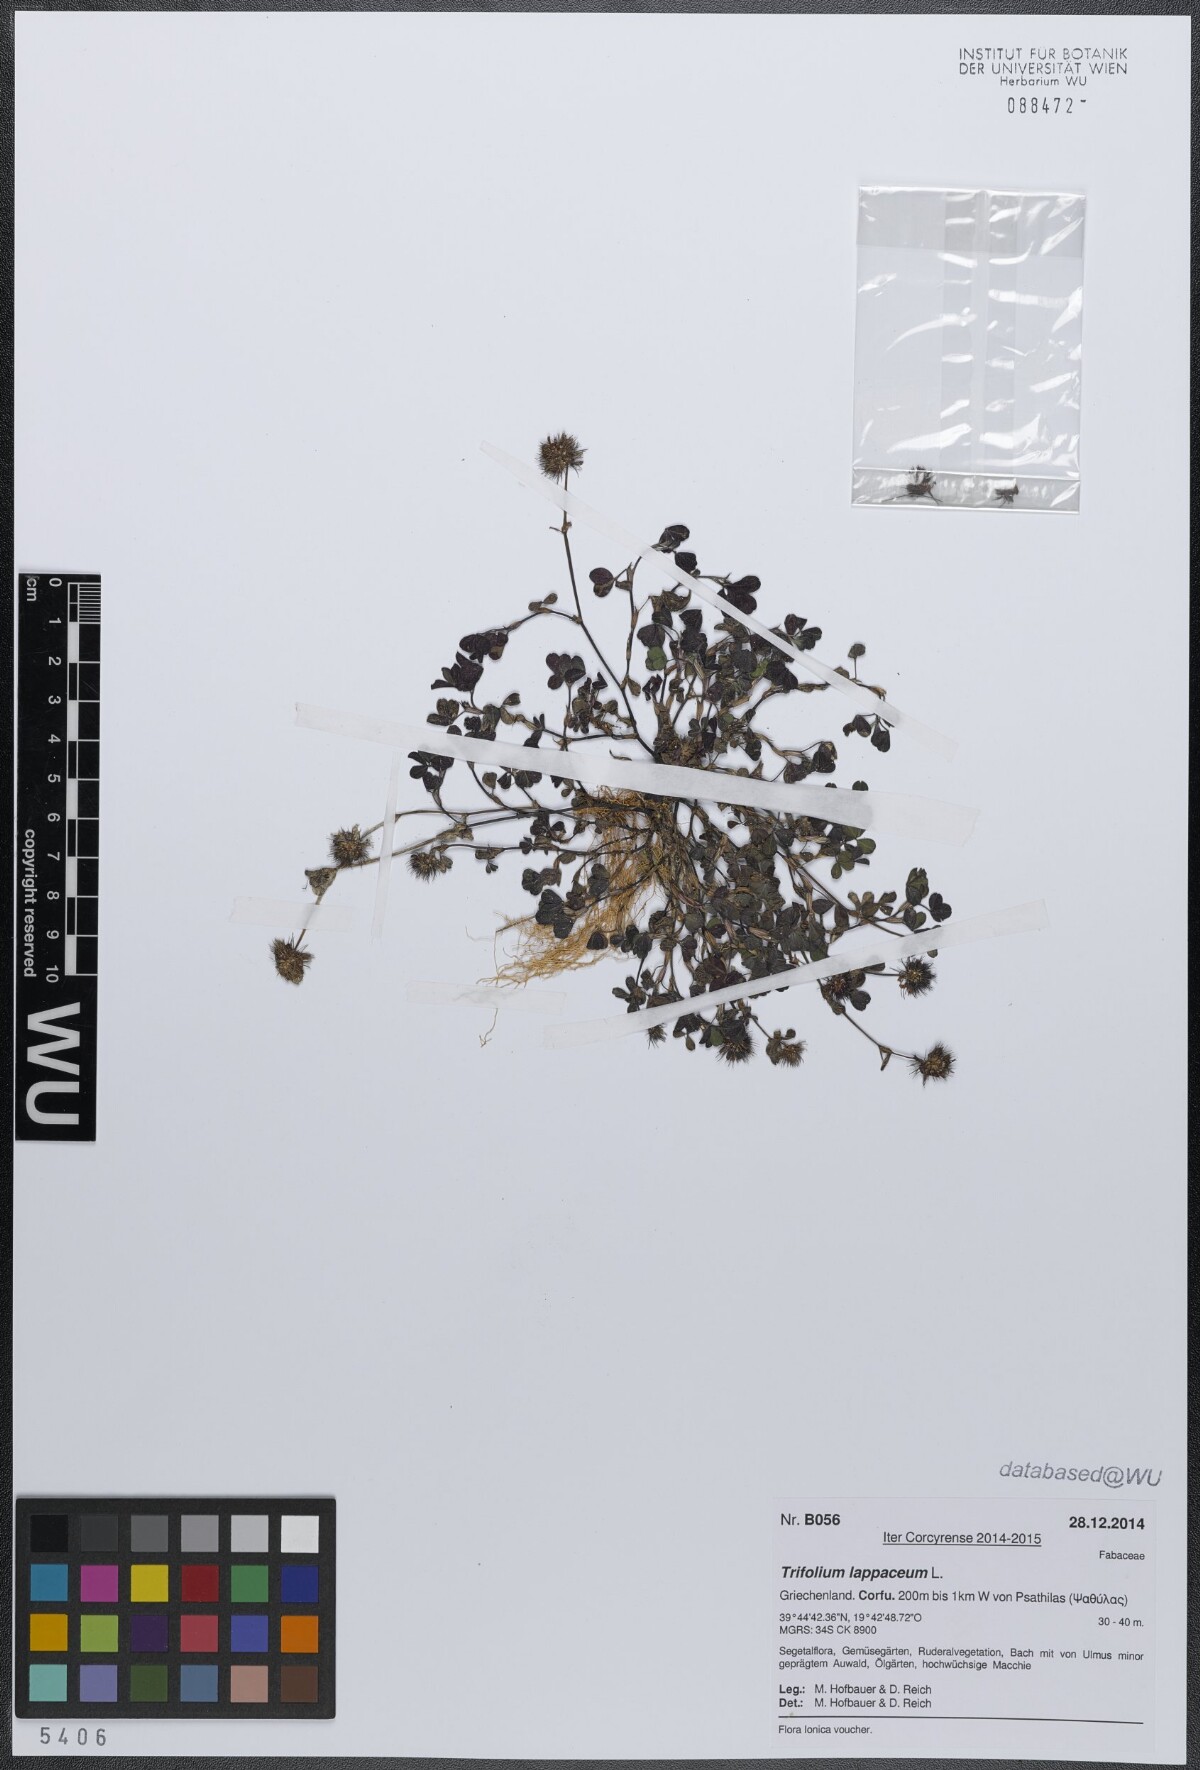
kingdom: Plantae
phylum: Tracheophyta
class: Magnoliopsida
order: Fabales
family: Fabaceae
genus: Trifolium
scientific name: Trifolium lappaceum
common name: Bur clover
